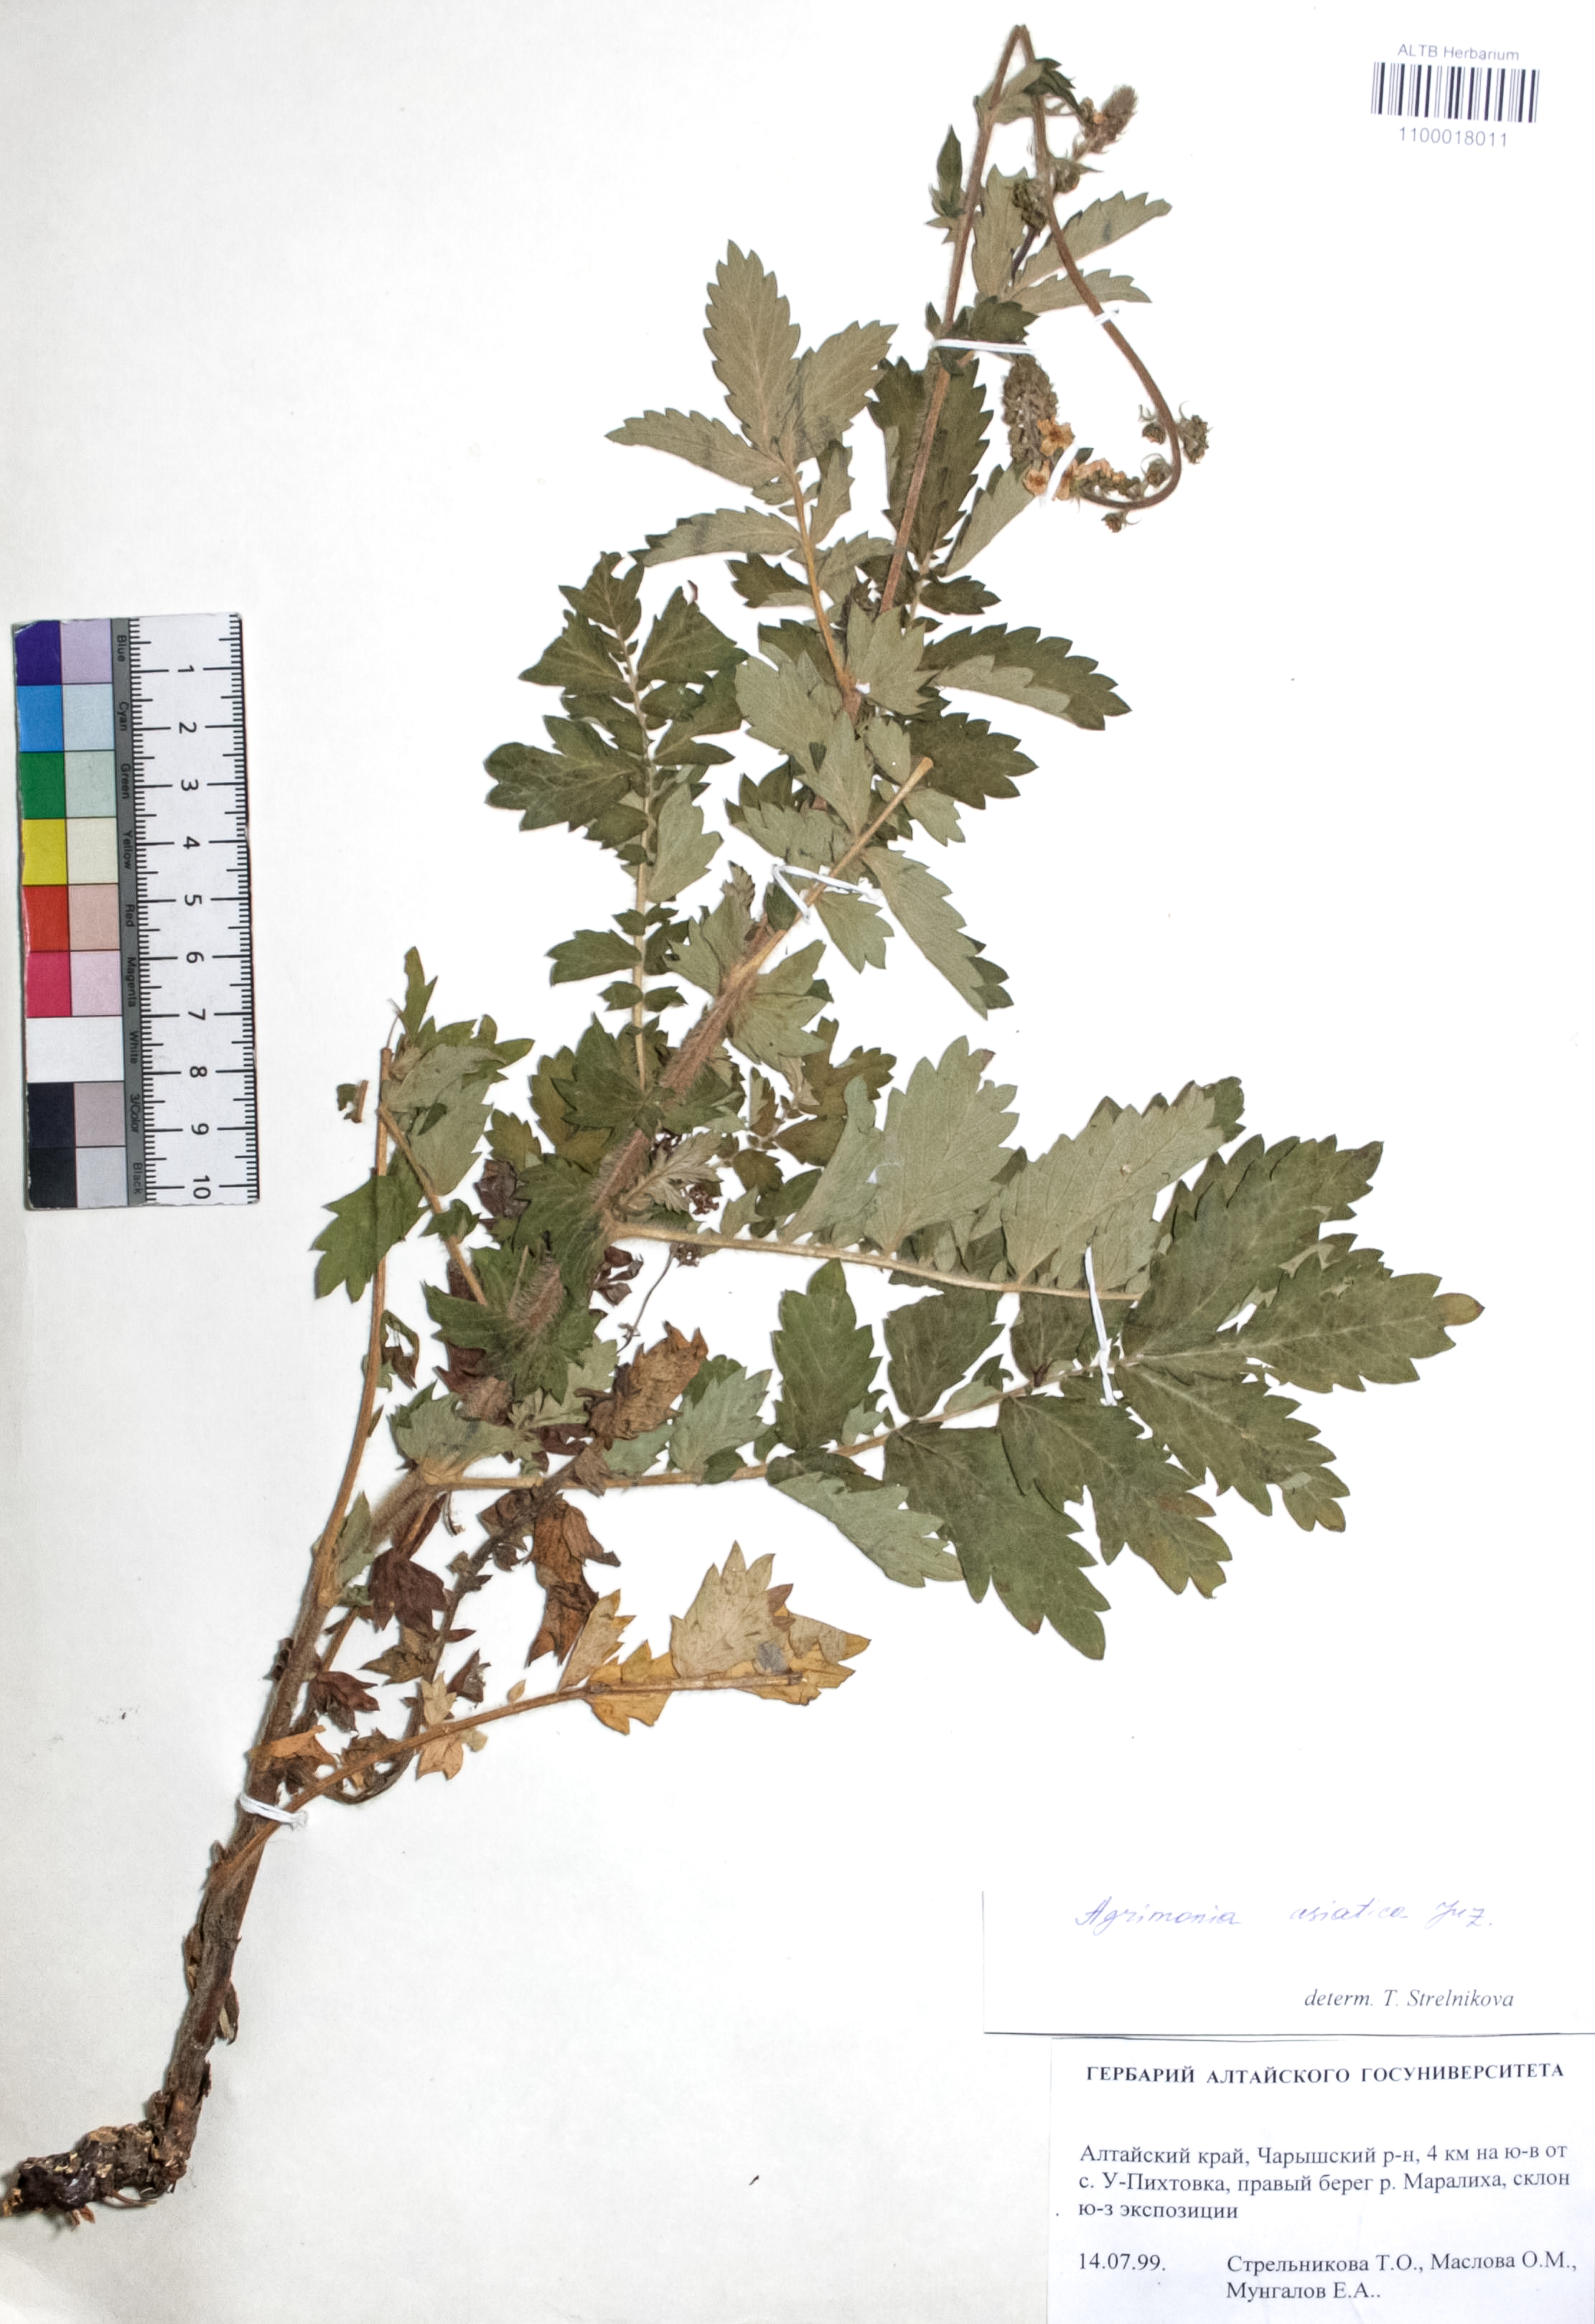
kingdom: Plantae
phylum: Tracheophyta
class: Magnoliopsida
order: Rosales
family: Rosaceae
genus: Agrimonia
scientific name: Agrimonia eupatoria
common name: Agrimony
